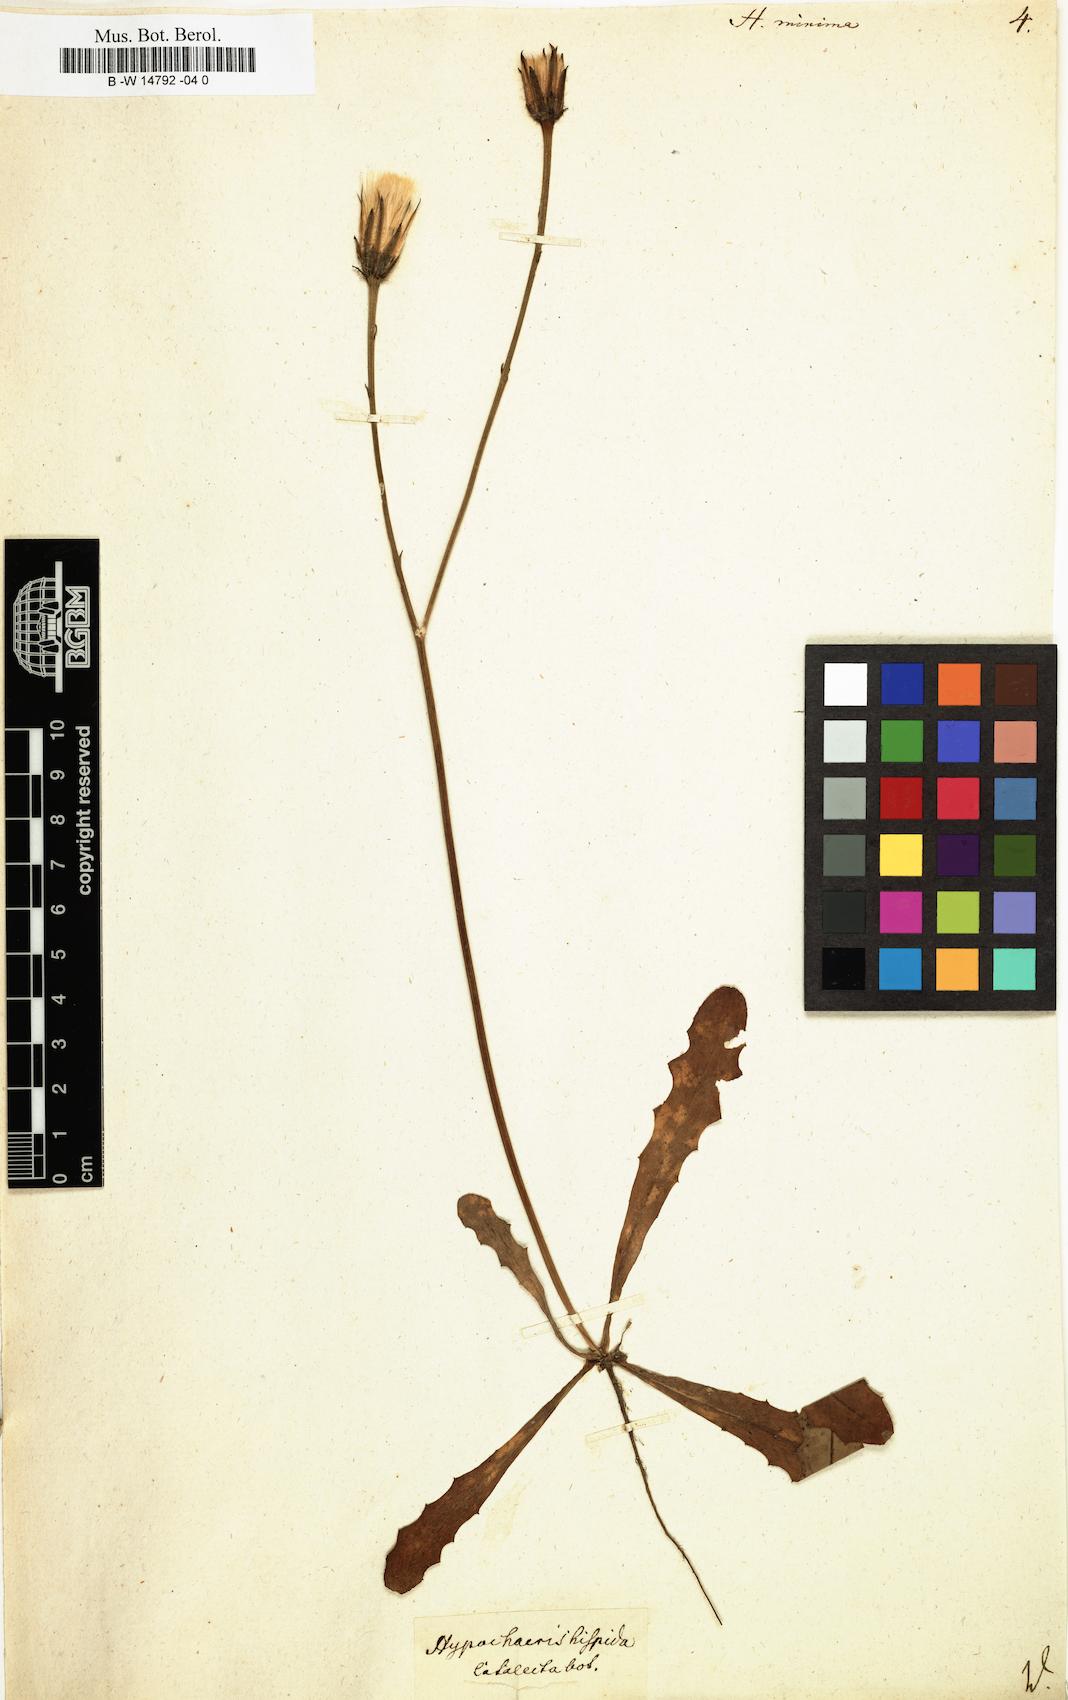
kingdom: Plantae
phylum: Tracheophyta
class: Magnoliopsida
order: Asterales
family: Asteraceae
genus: Hypochaeris
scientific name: Hypochaeris
